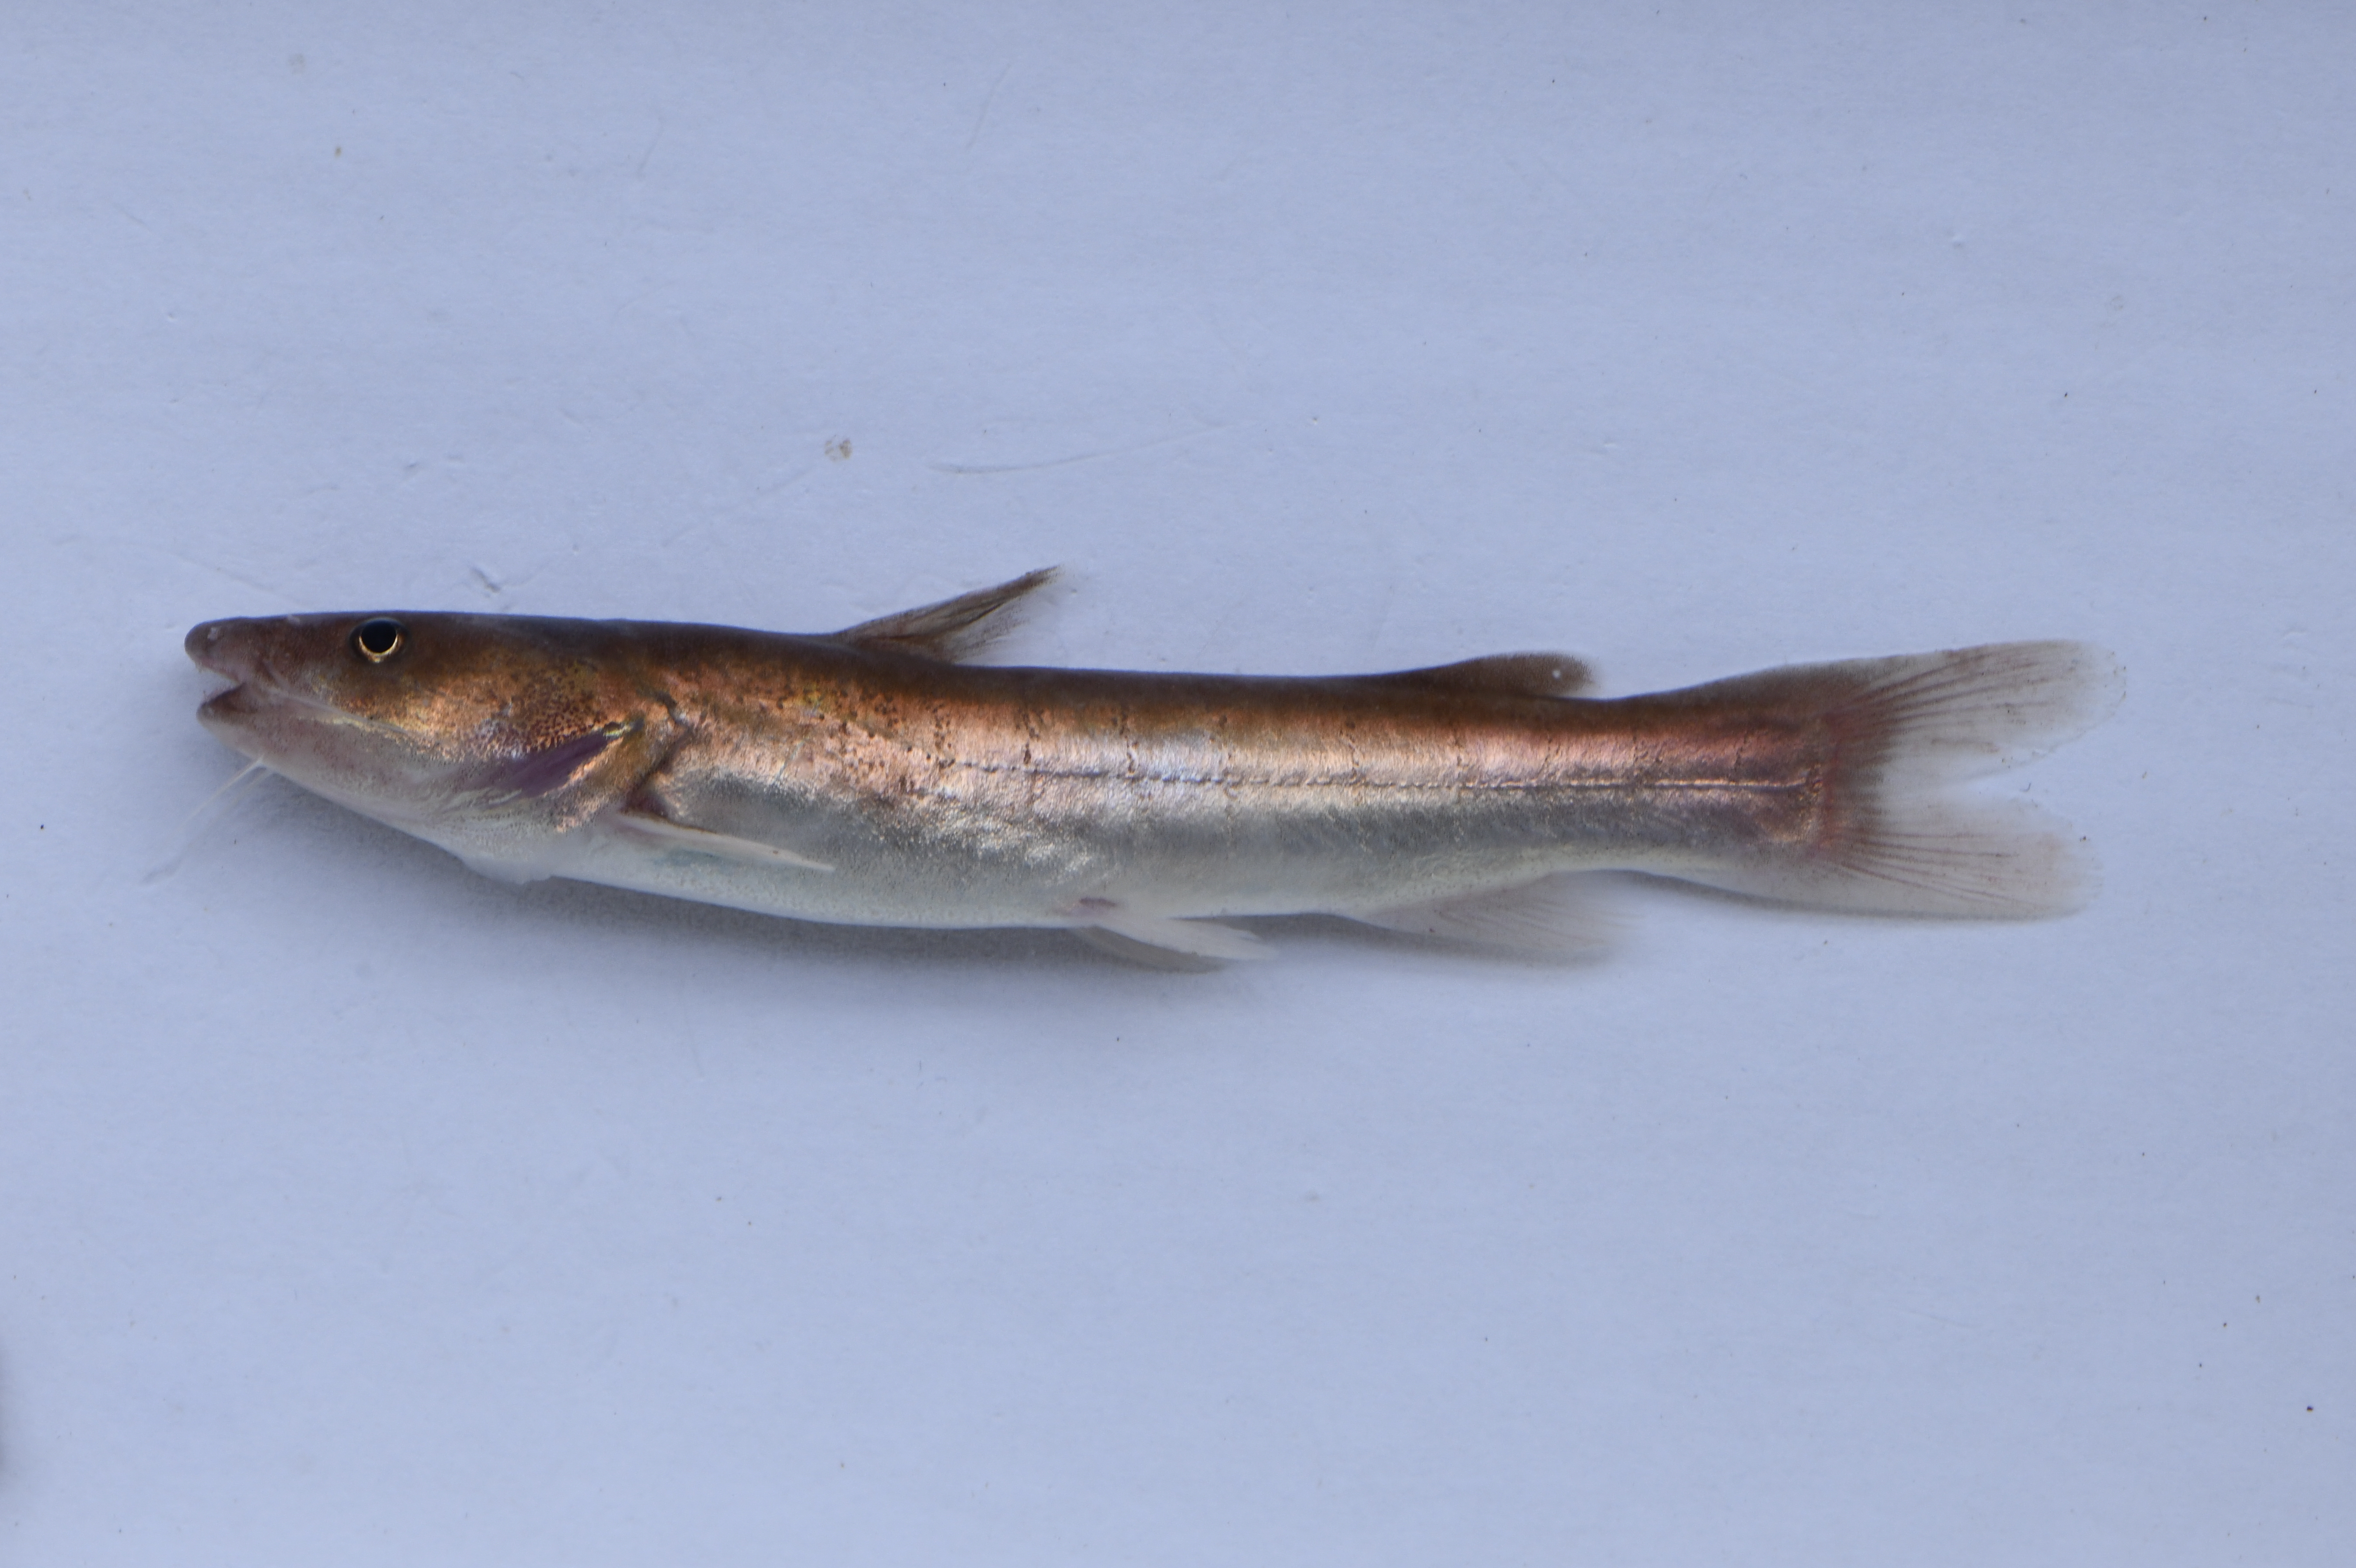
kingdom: Animalia
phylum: Chordata
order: Siluriformes
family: Claroteidae
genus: Bathybagrus
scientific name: Bathybagrus tetranema
